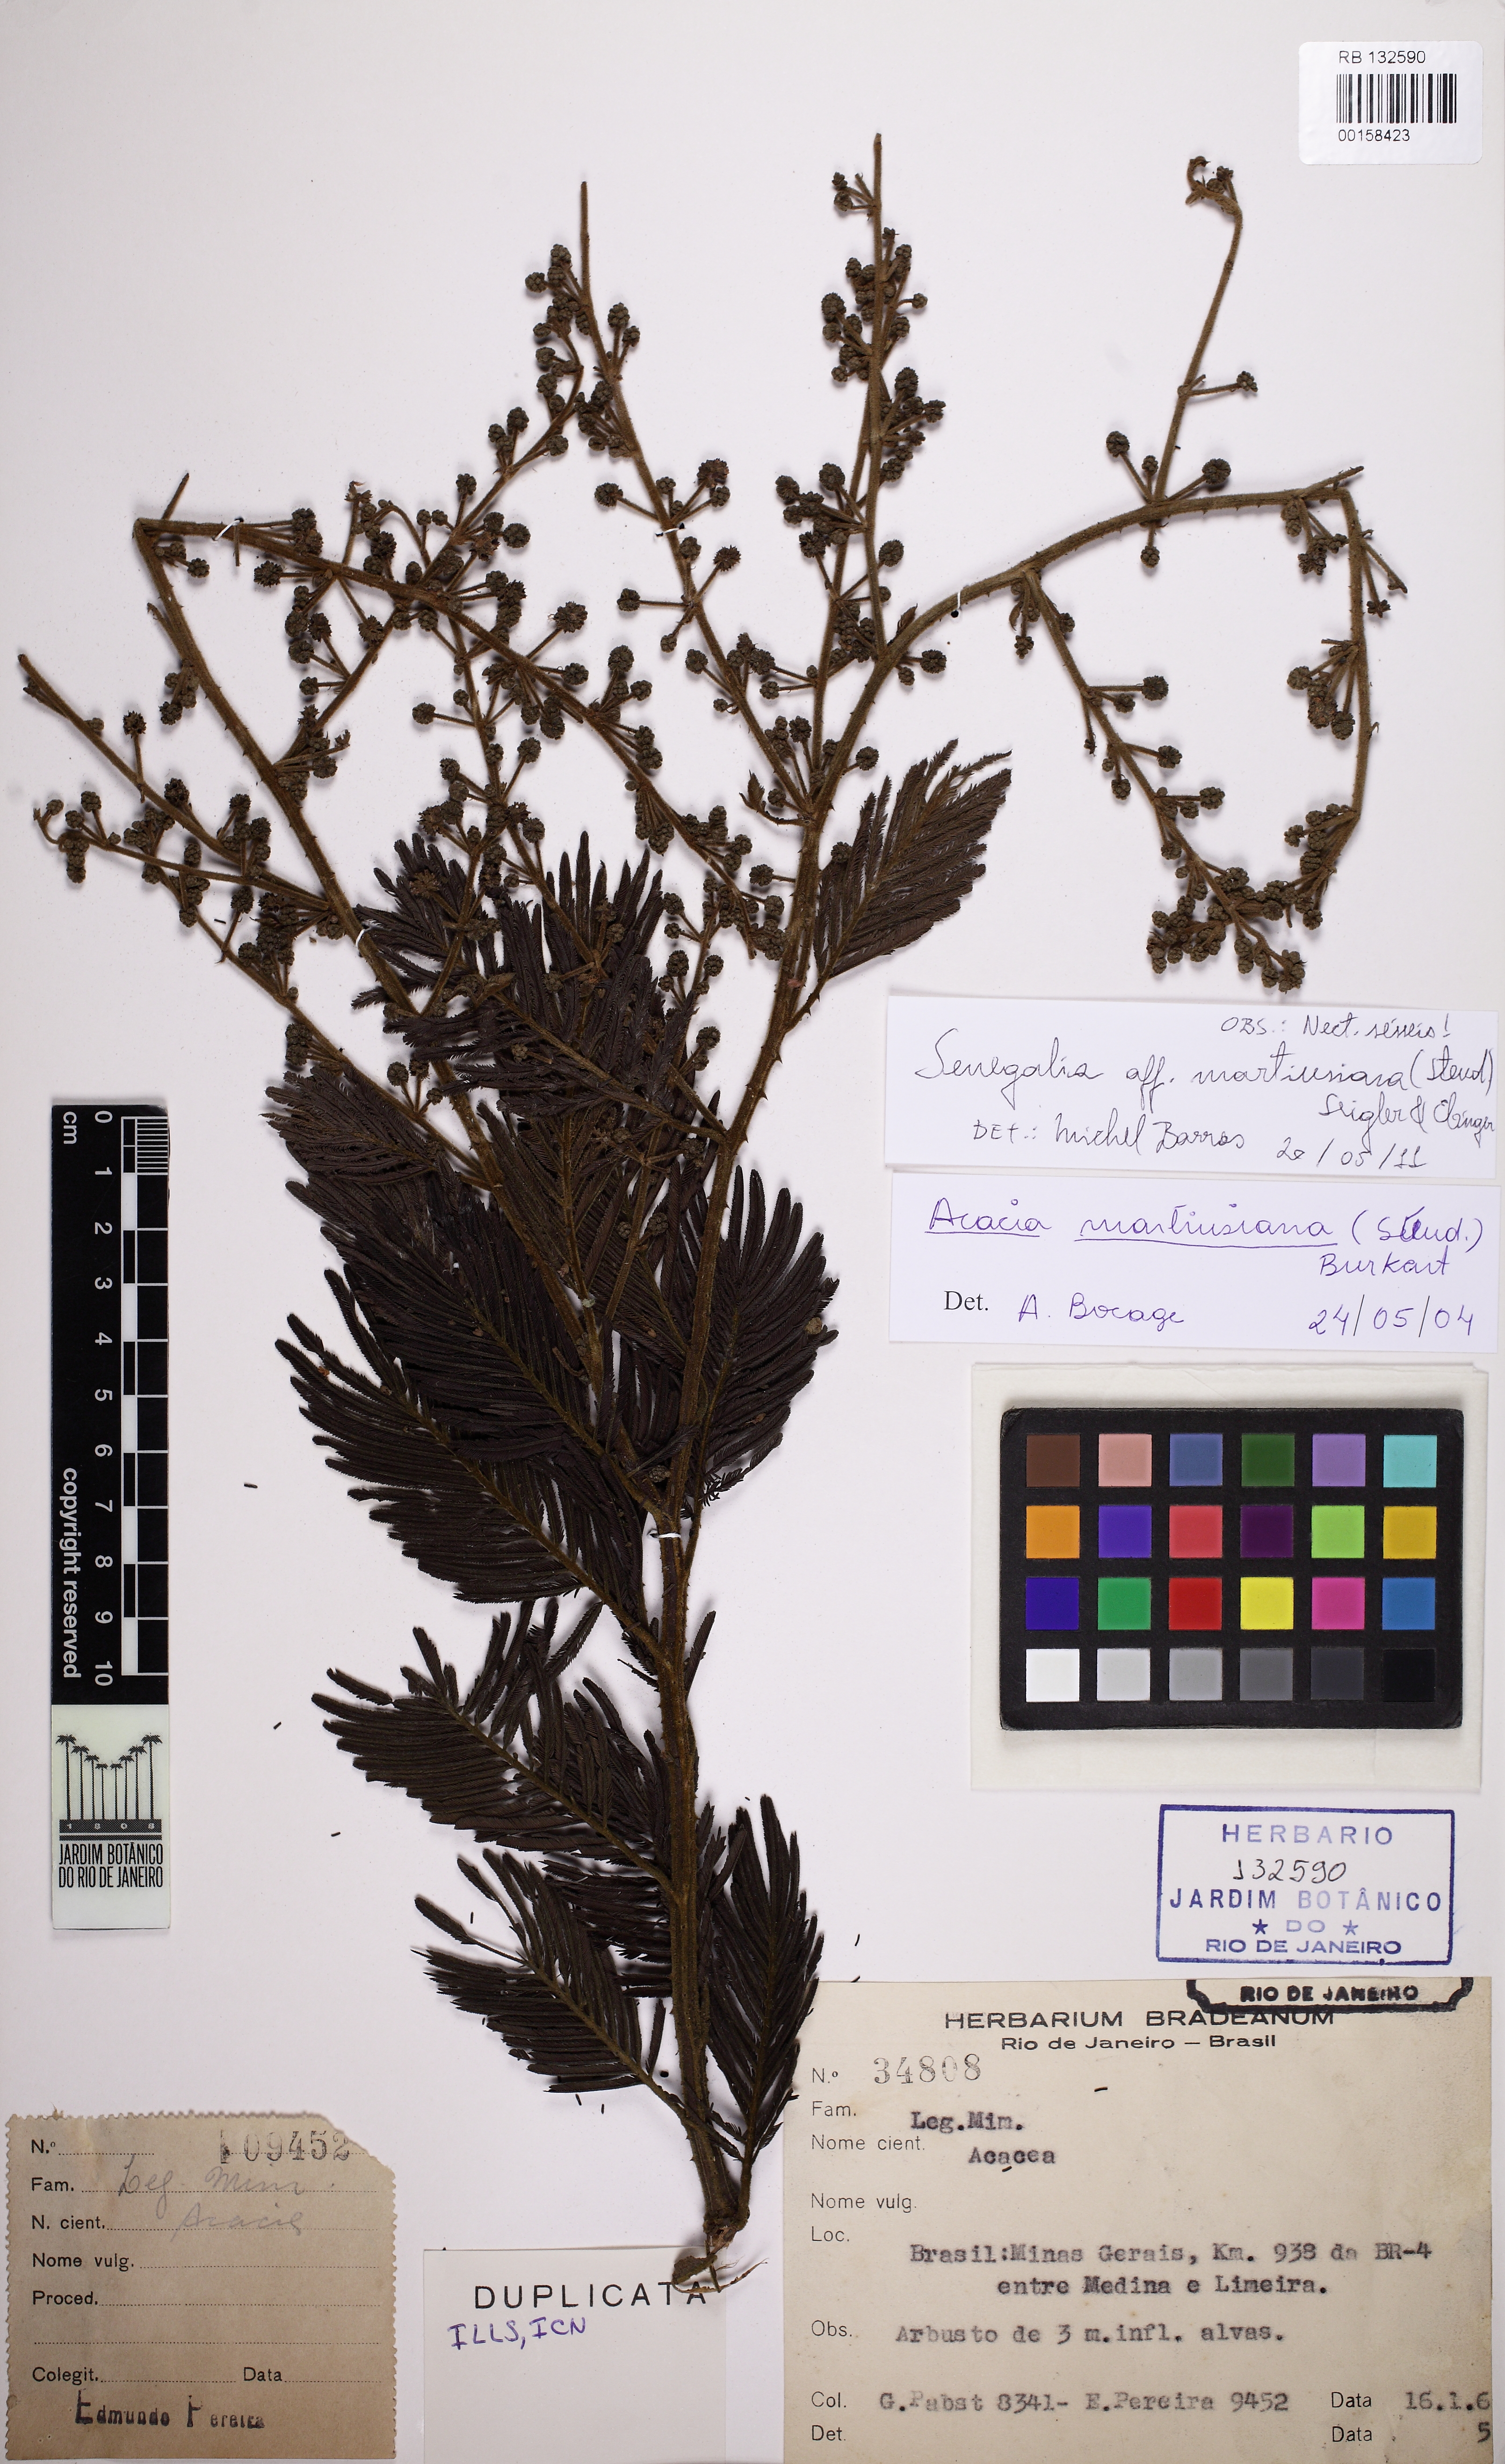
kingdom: Plantae
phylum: Tracheophyta
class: Magnoliopsida
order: Fabales
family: Fabaceae
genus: Senegalia
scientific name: Senegalia harleyi
